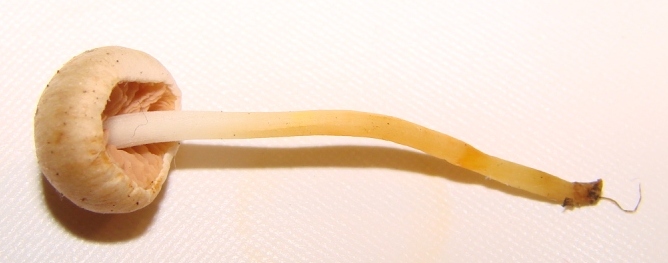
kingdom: Fungi
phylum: Basidiomycota
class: Agaricomycetes
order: Agaricales
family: Entolomataceae
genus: Entoloma
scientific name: Entoloma sericellum
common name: silkehvid rødblad
